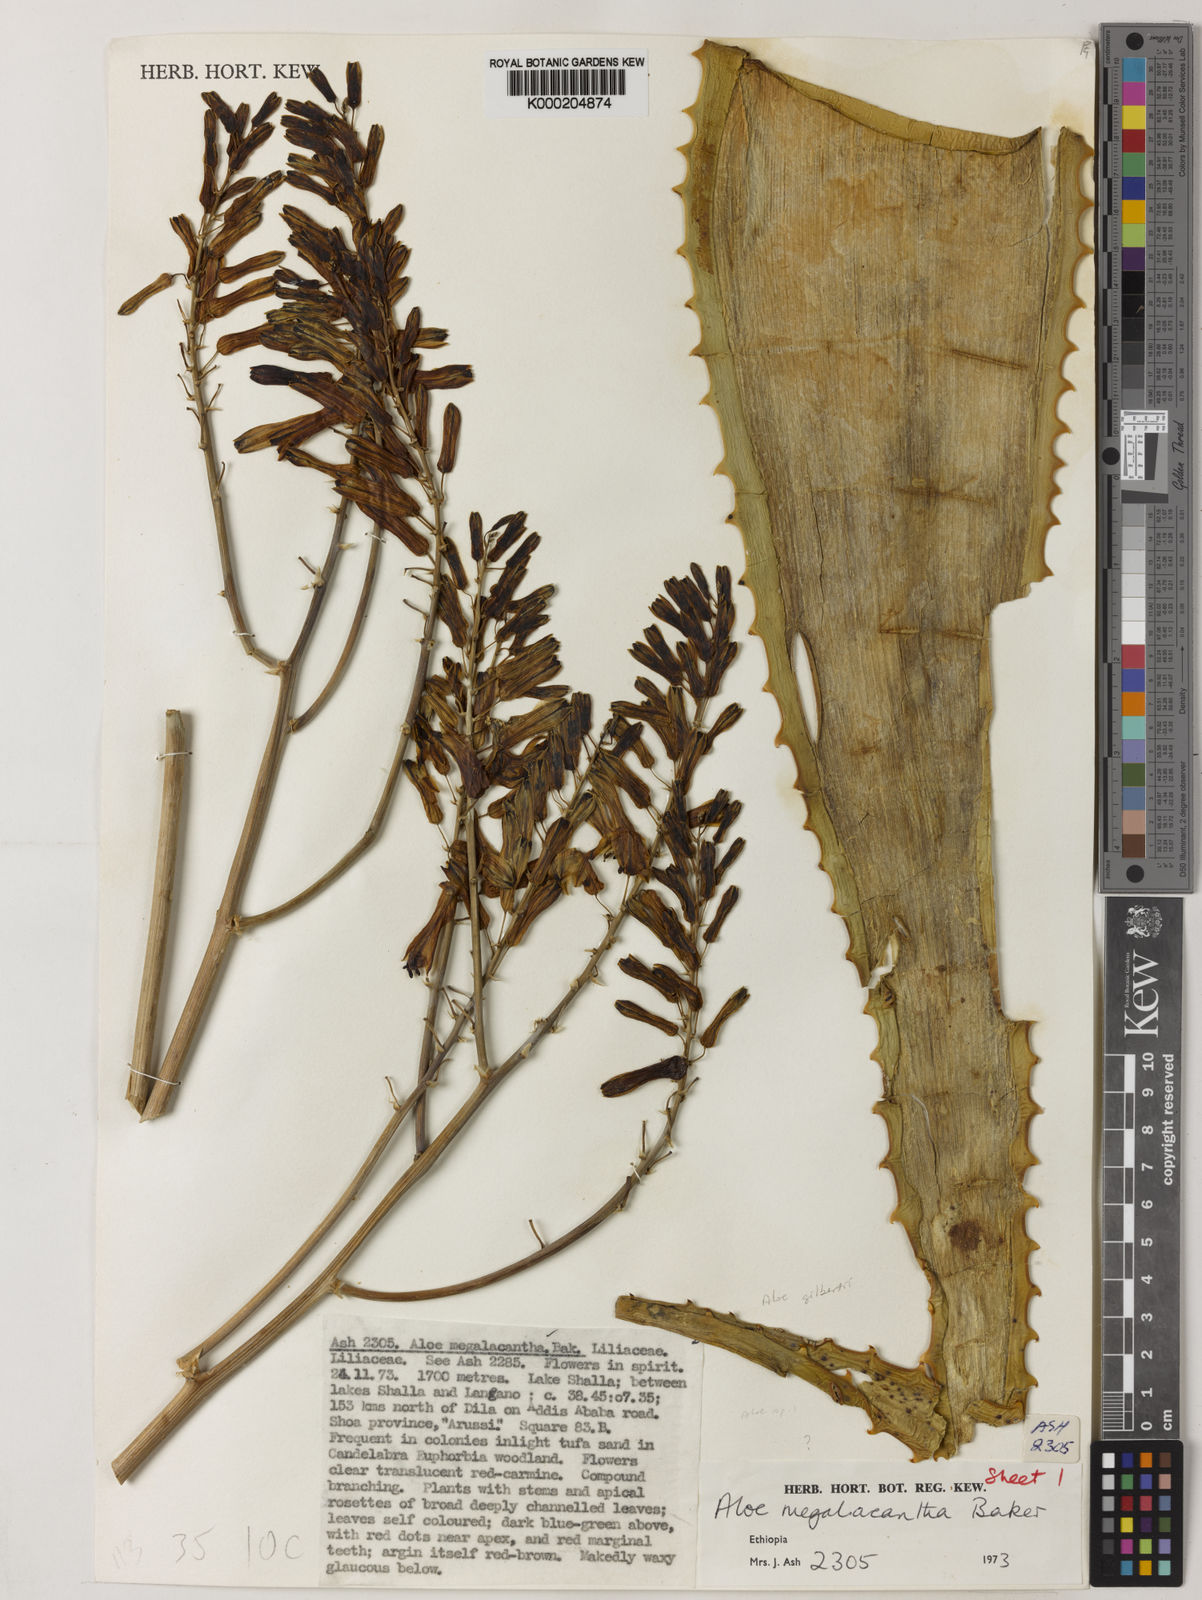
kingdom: Plantae
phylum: Tracheophyta
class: Liliopsida
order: Asparagales
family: Asphodelaceae
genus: Aloe
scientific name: Aloe gilbertii
